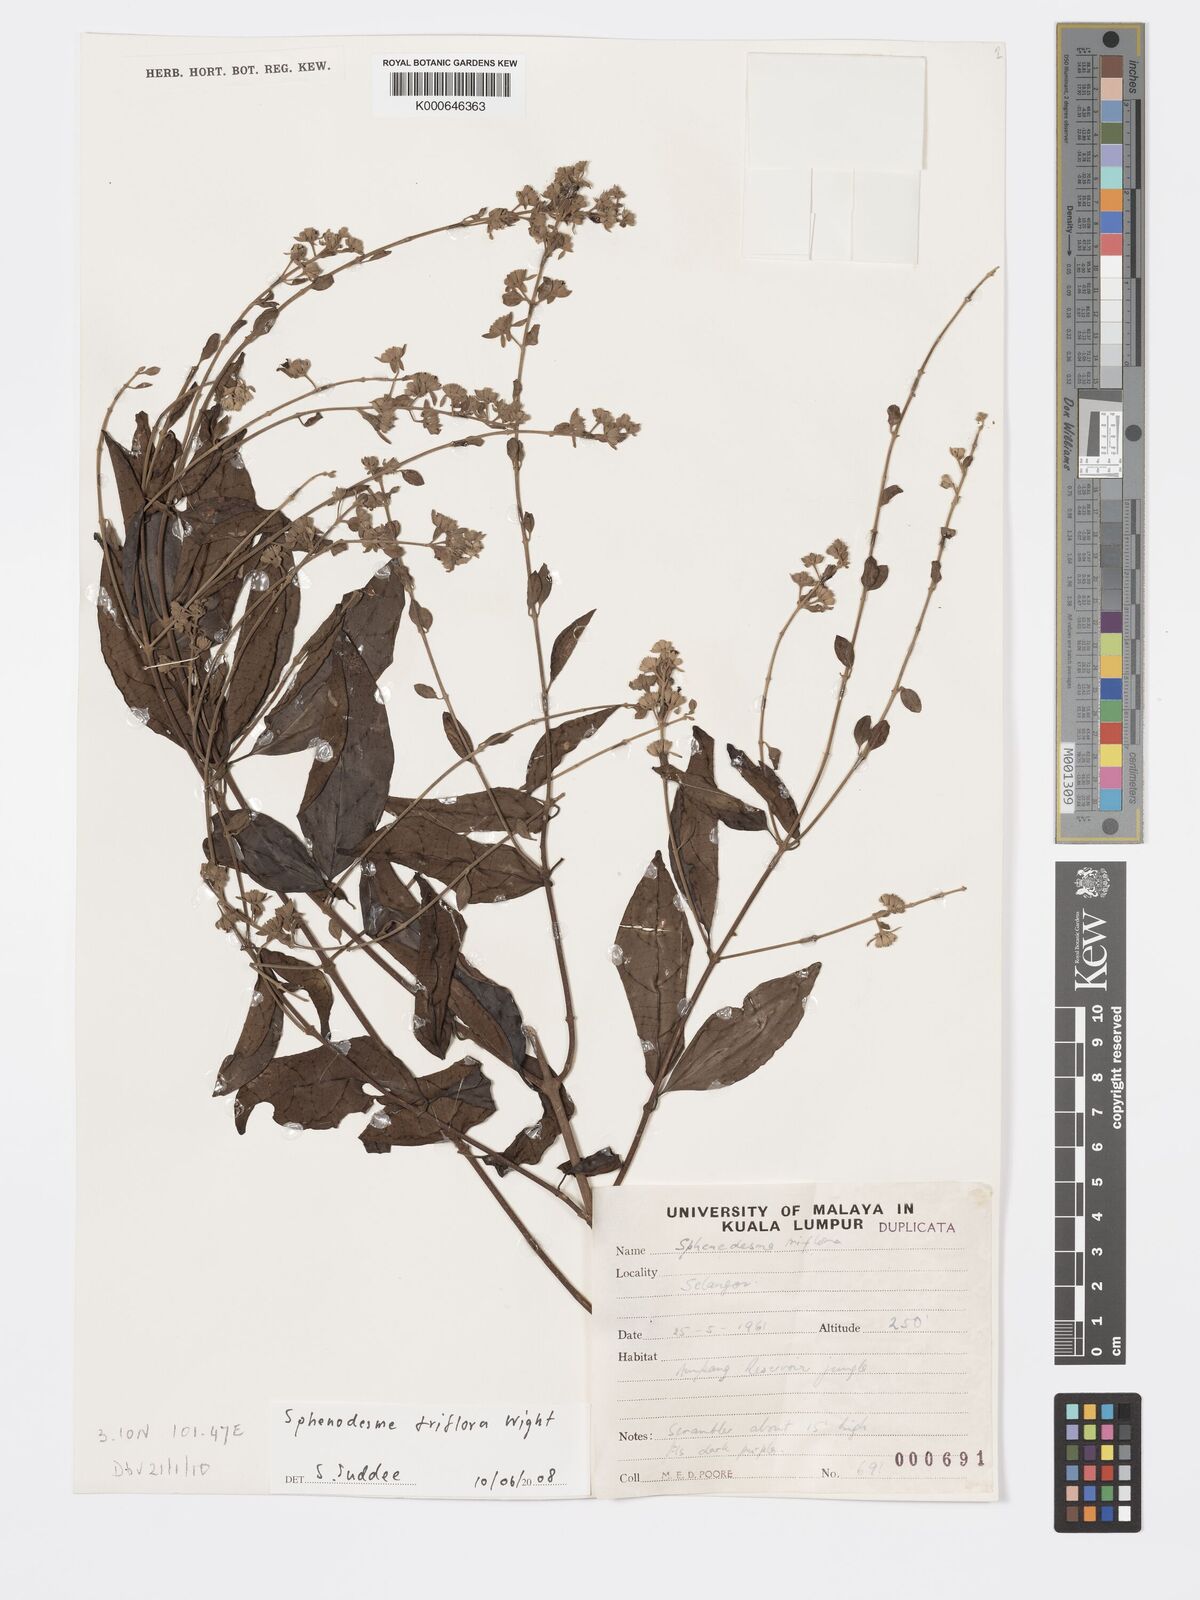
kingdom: Plantae
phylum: Tracheophyta
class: Magnoliopsida
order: Lamiales
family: Lamiaceae
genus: Sphenodesme
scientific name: Sphenodesme
